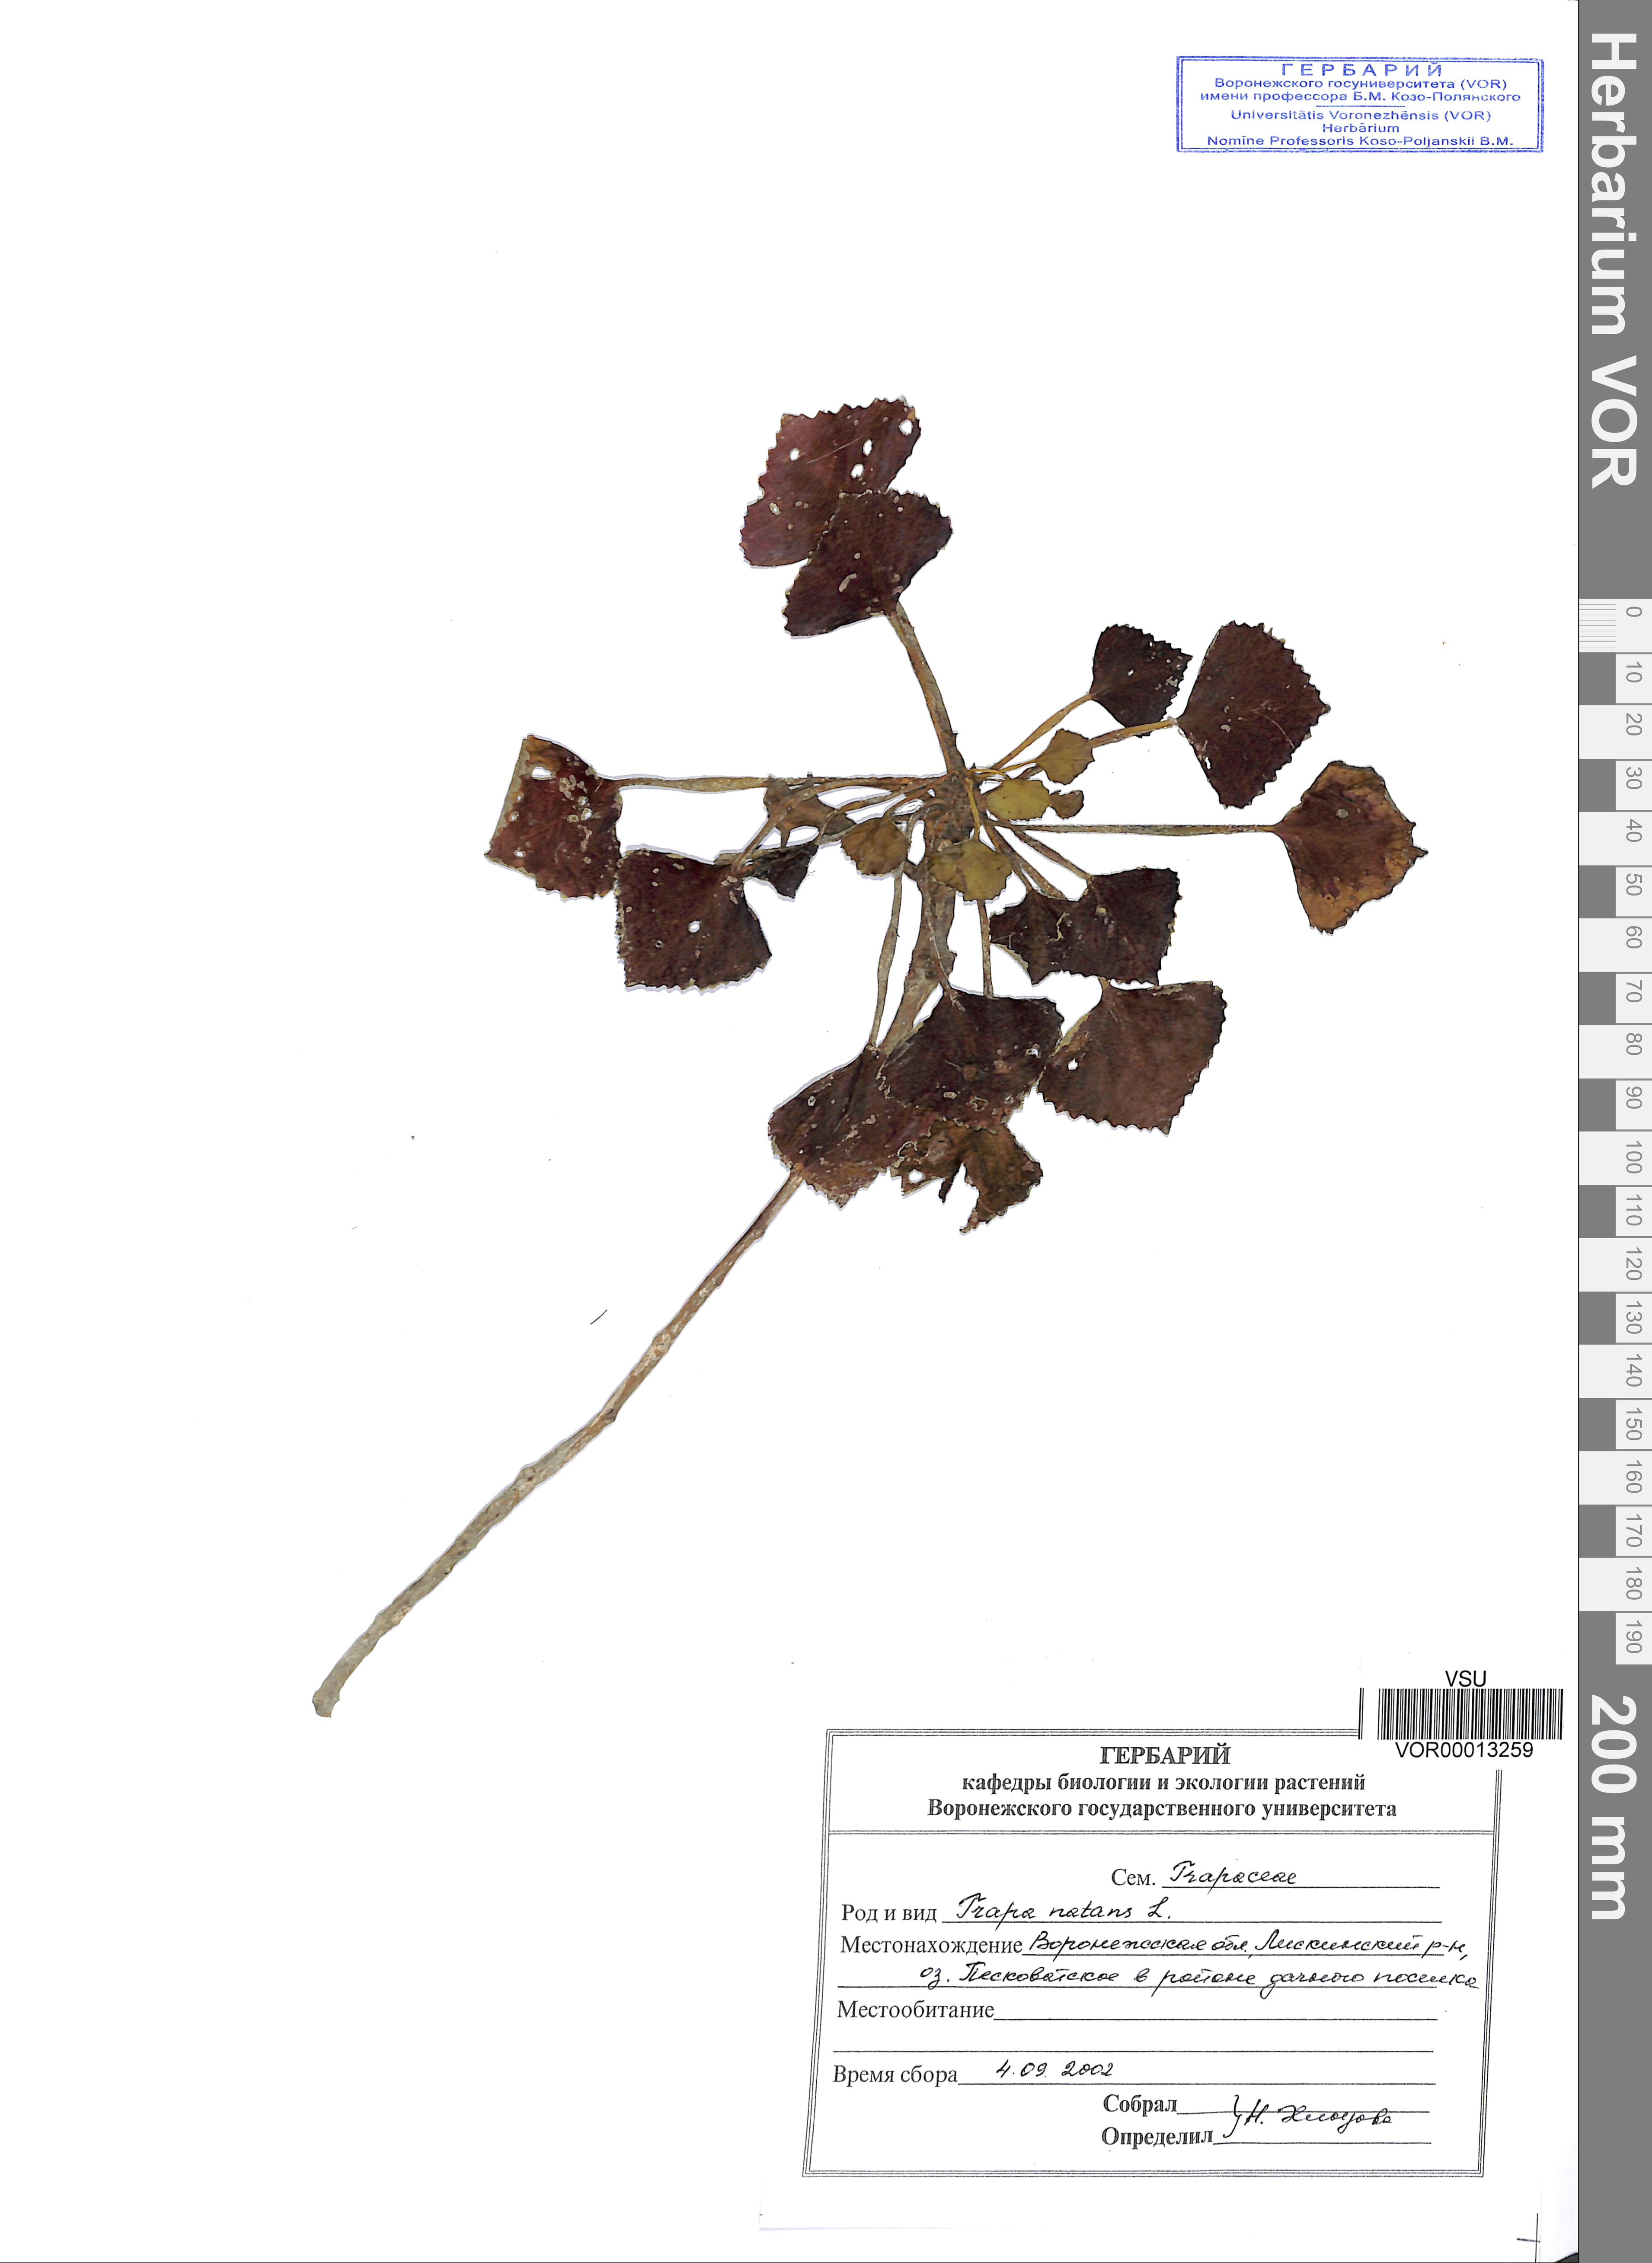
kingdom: Plantae
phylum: Tracheophyta
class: Magnoliopsida
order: Myrtales
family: Lythraceae
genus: Trapa
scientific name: Trapa natans
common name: Water chestnut
